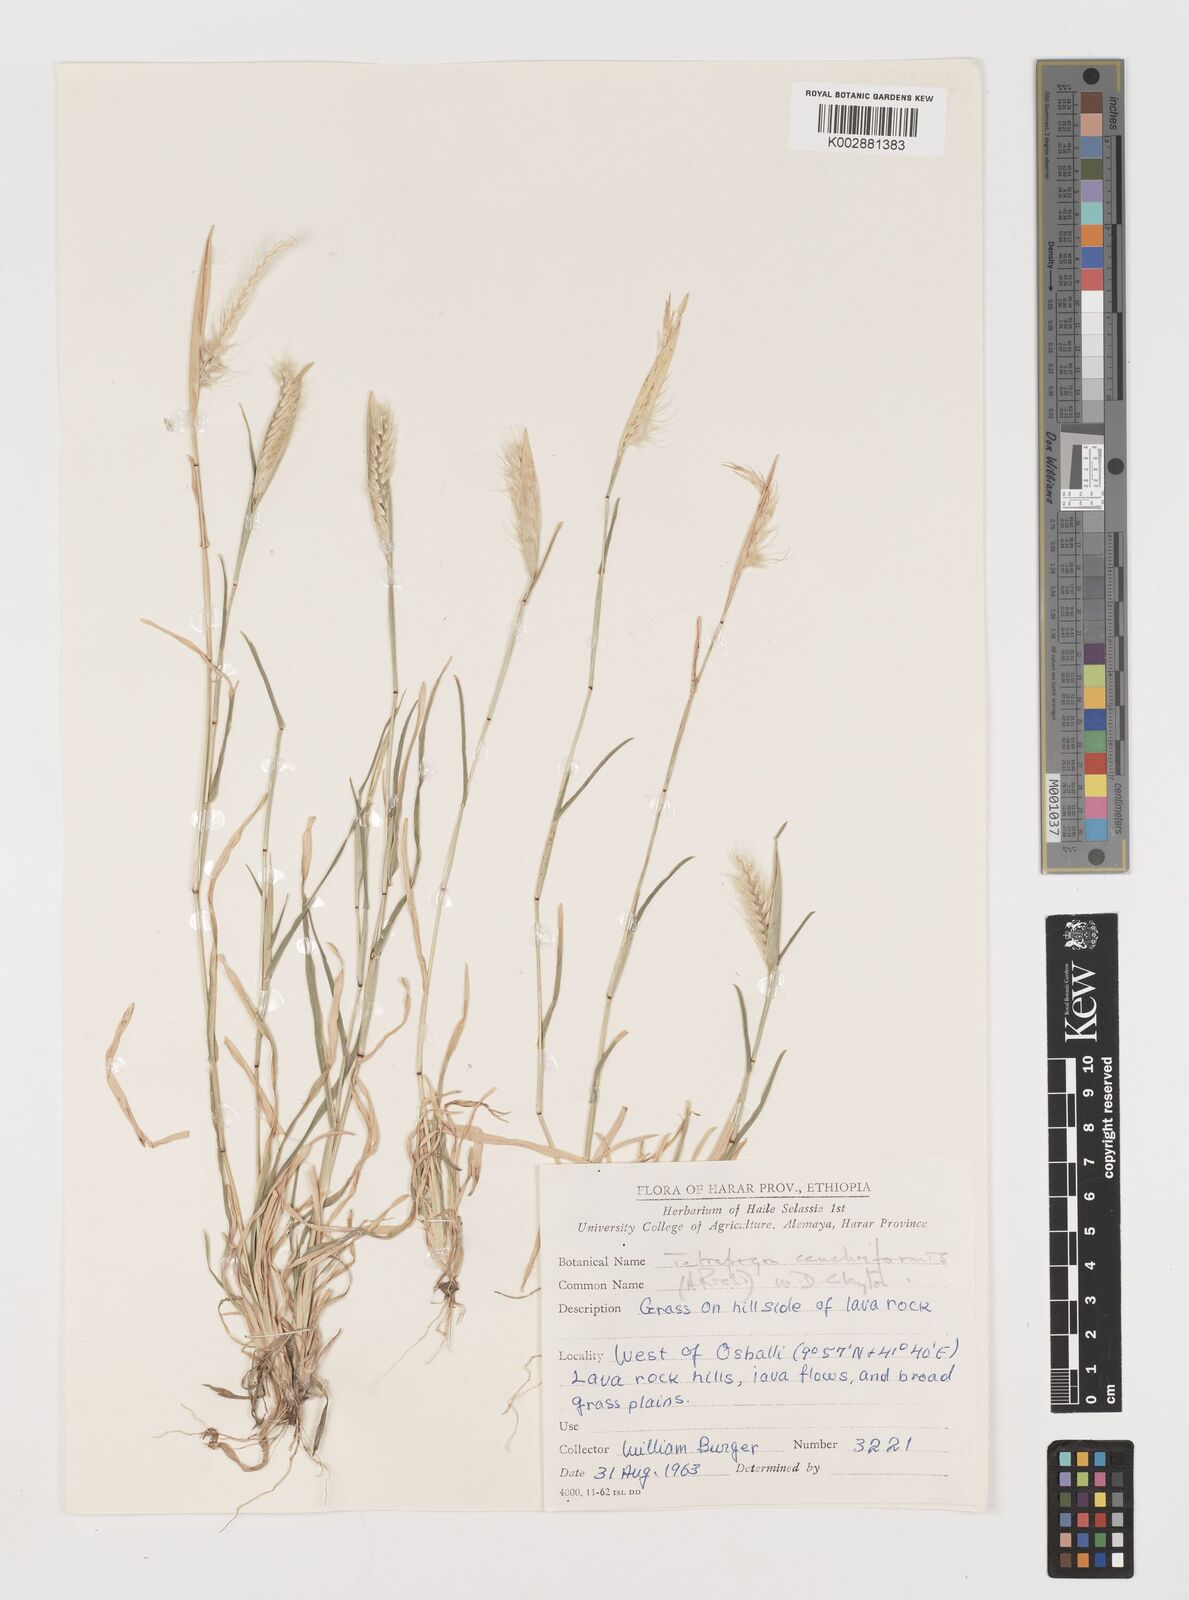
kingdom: Plantae
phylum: Tracheophyta
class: Liliopsida
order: Poales
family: Poaceae
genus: Tetrapogon
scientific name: Tetrapogon cenchriformis
